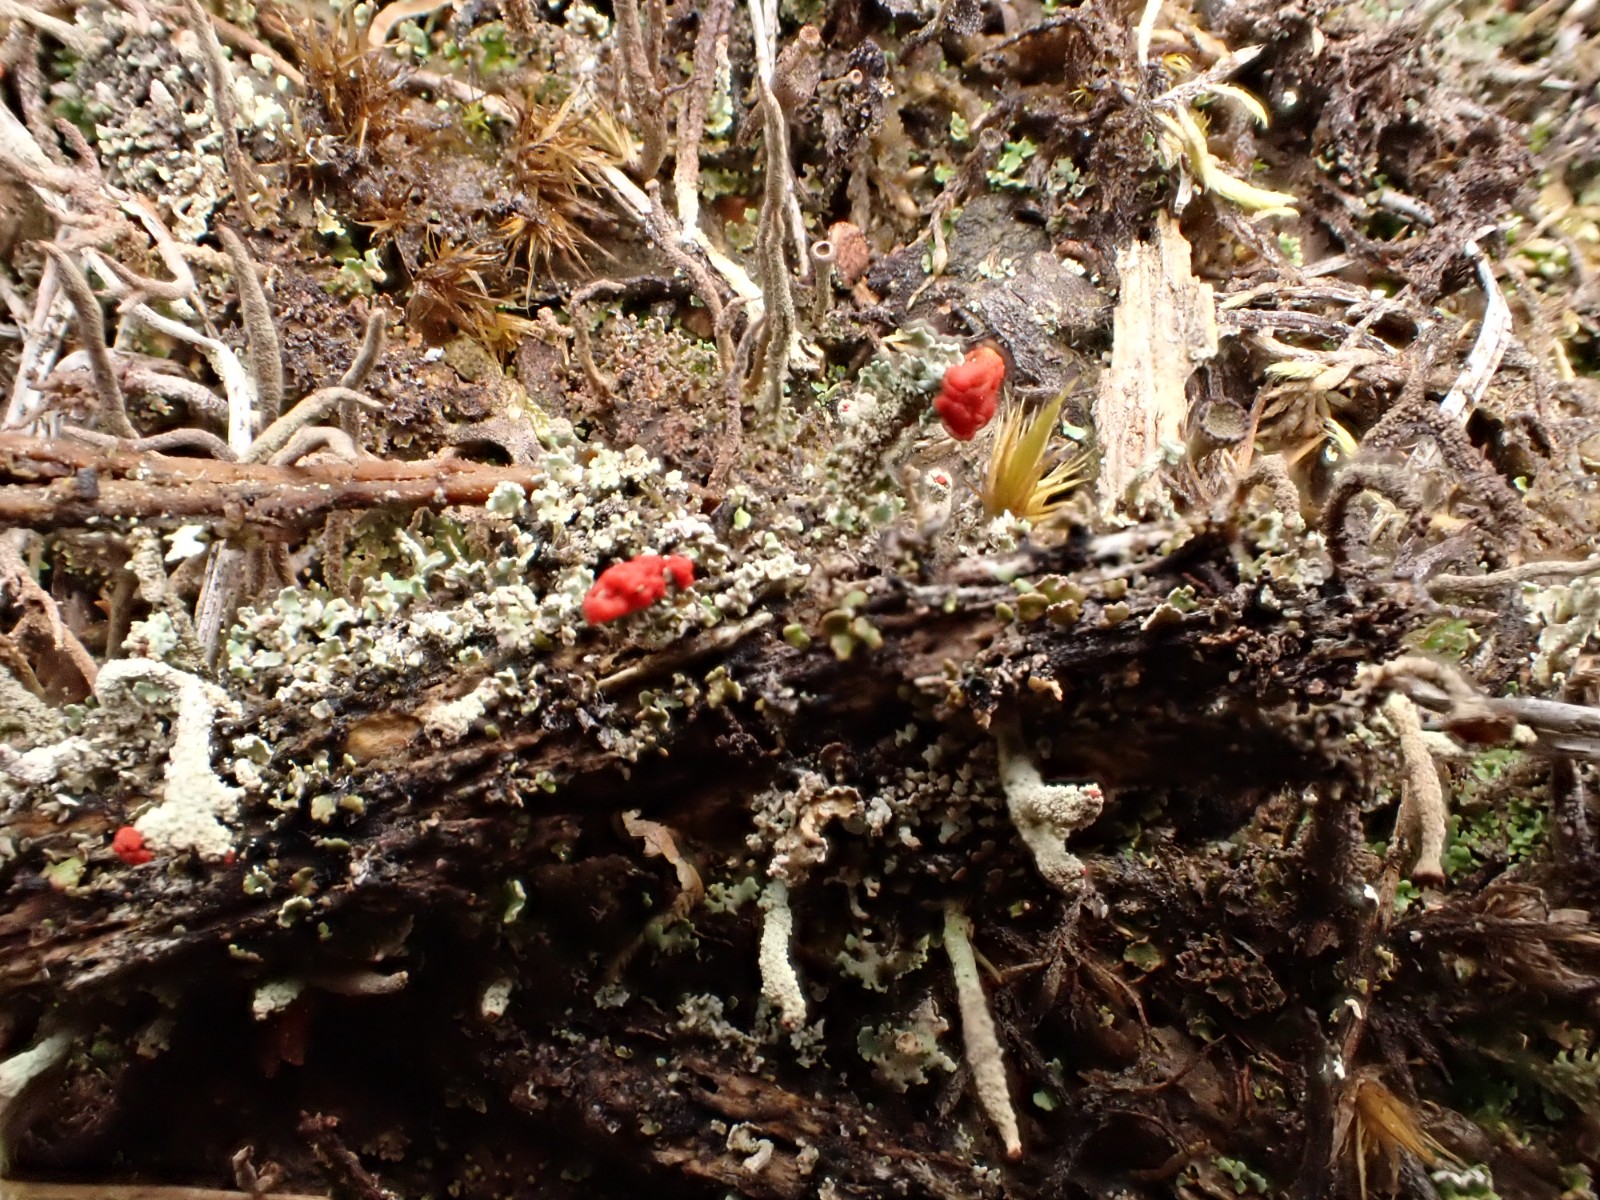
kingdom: Fungi
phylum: Ascomycota
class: Lecanoromycetes
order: Lecanorales
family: Cladoniaceae
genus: Cladonia
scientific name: Cladonia floerkeana
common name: lakrød bægerlav
